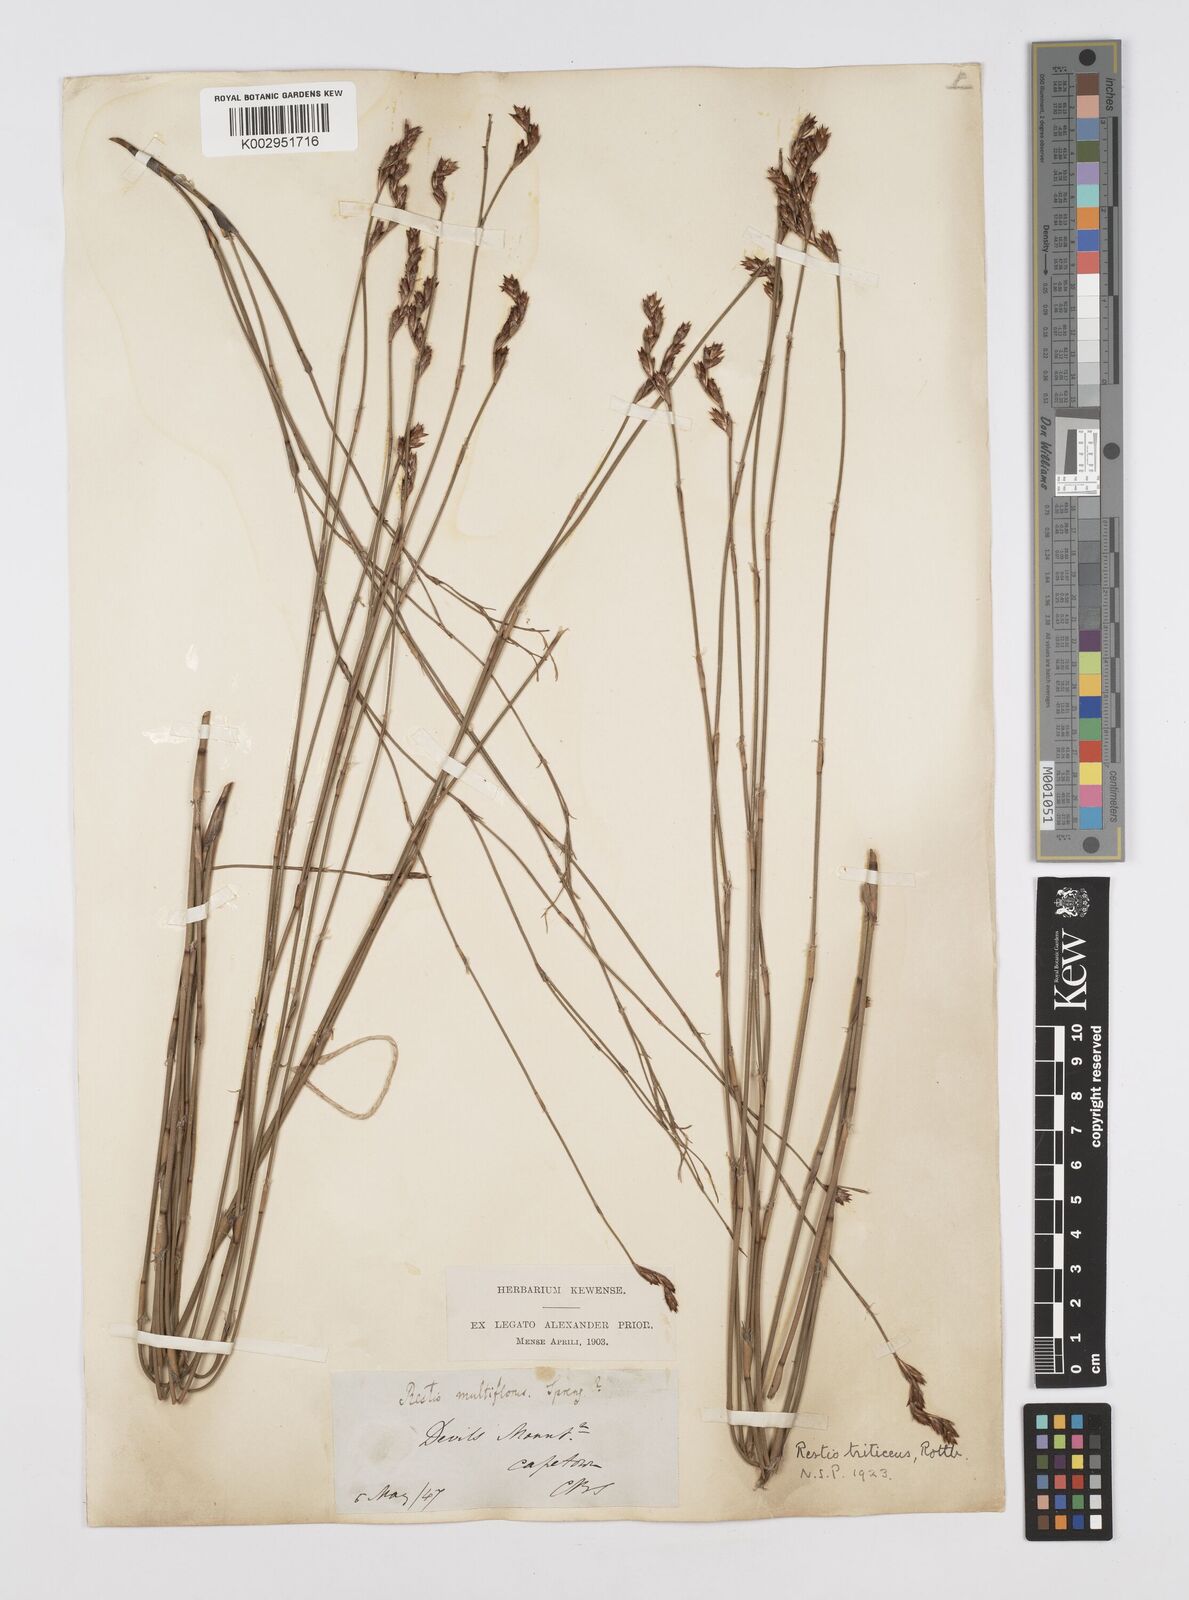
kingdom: Plantae
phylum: Tracheophyta
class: Liliopsida
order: Poales
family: Restionaceae
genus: Restio
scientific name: Restio triticeus
